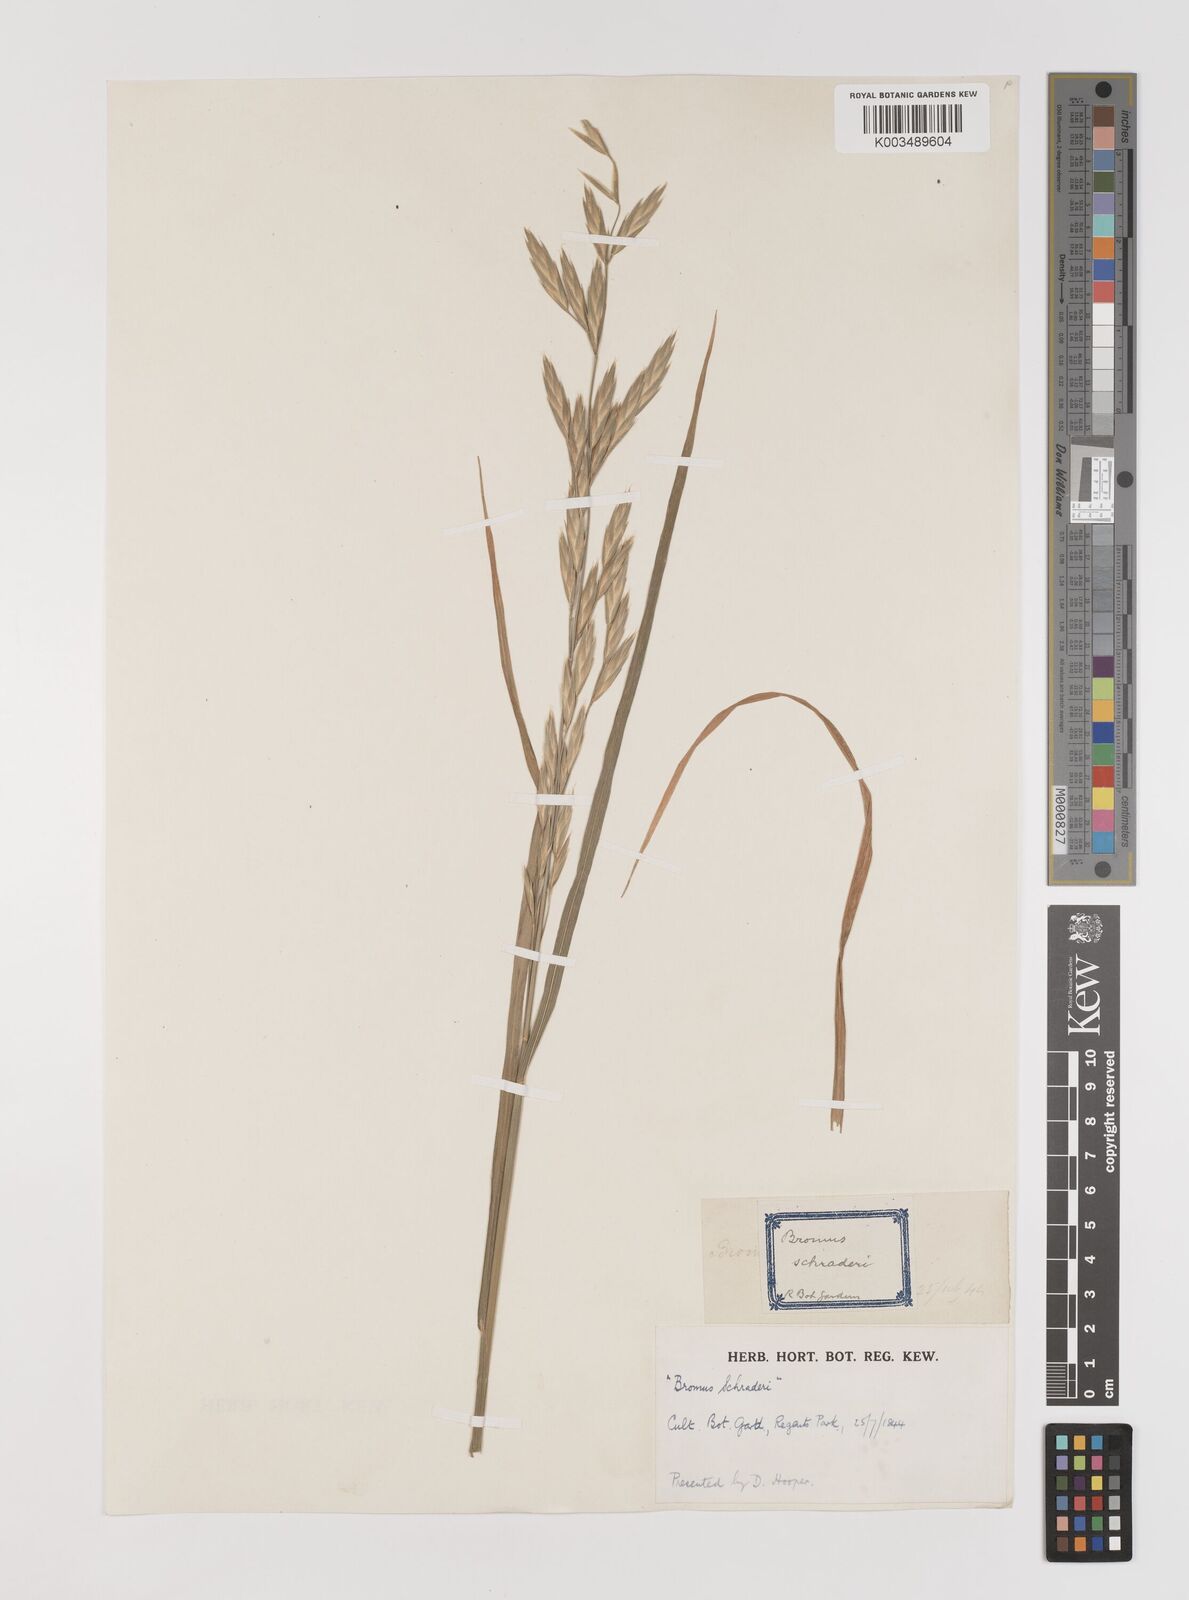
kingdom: Plantae
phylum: Tracheophyta
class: Liliopsida
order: Poales
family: Poaceae
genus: Bromus
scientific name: Bromus catharticus
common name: Rescuegrass
